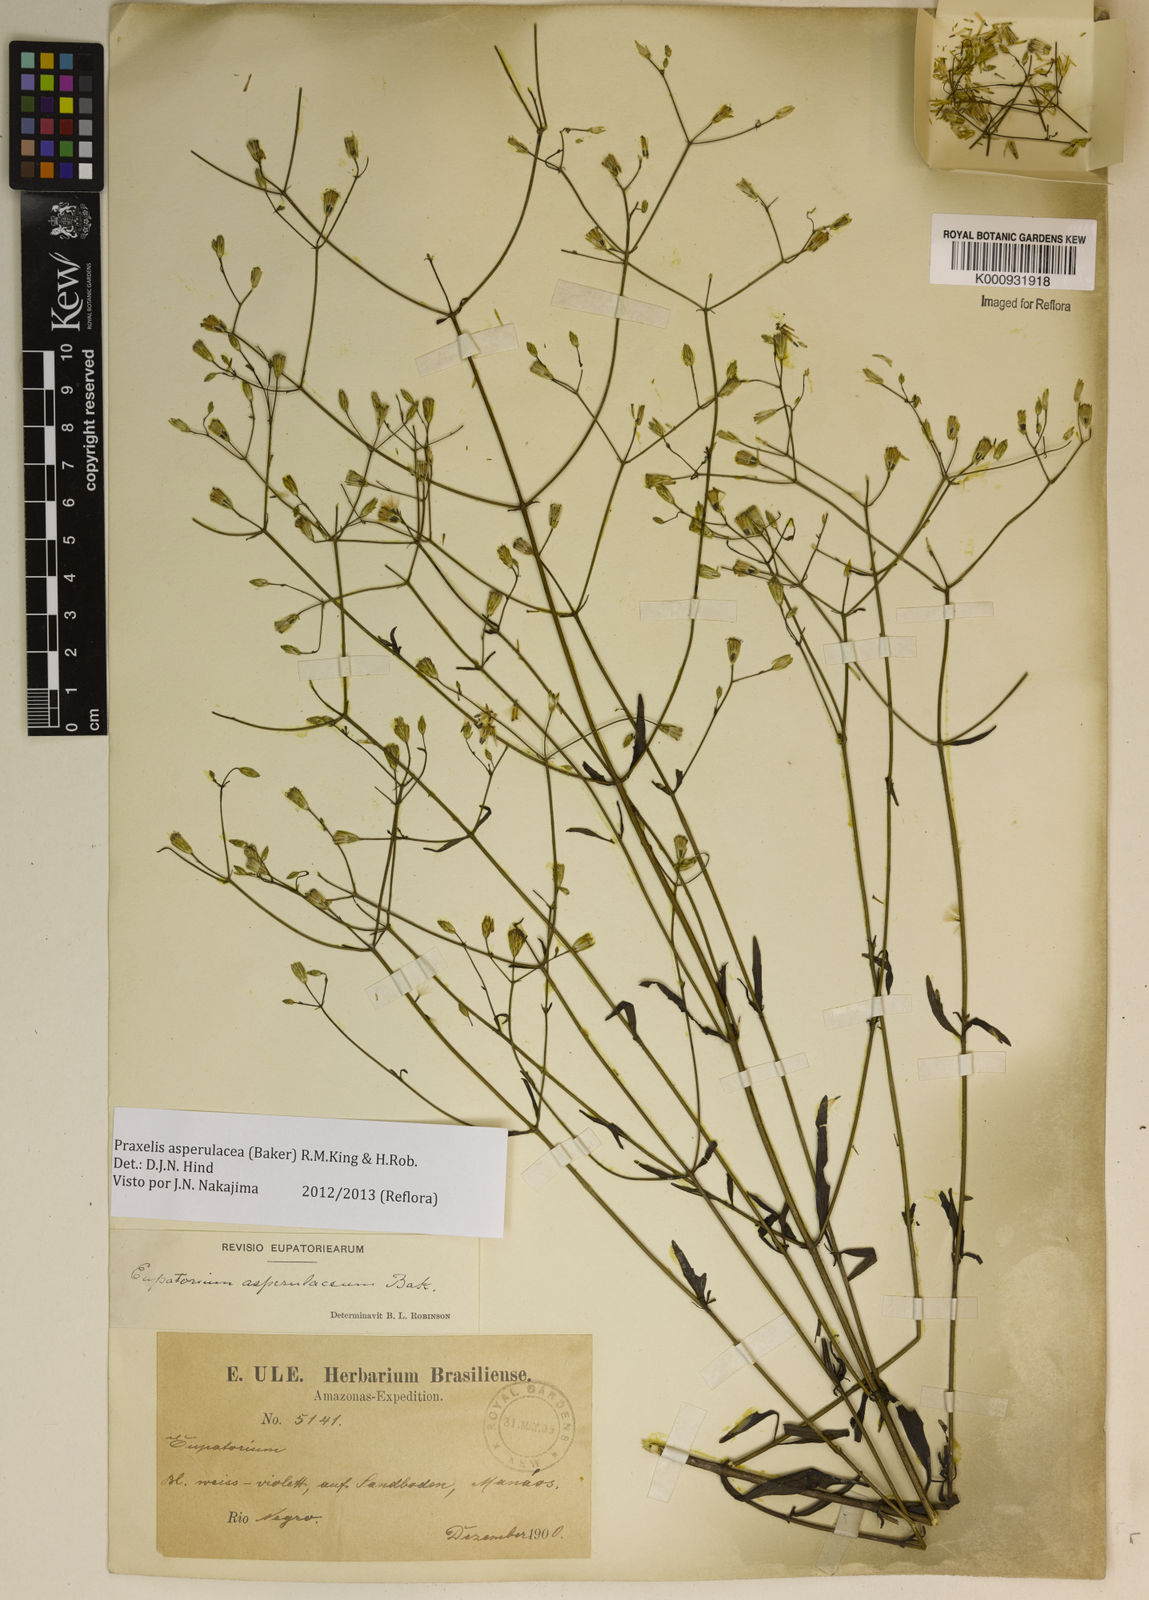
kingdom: Plantae
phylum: Tracheophyta
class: Magnoliopsida
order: Asterales
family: Asteraceae
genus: Praxelis
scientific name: Praxelis asperulacea
